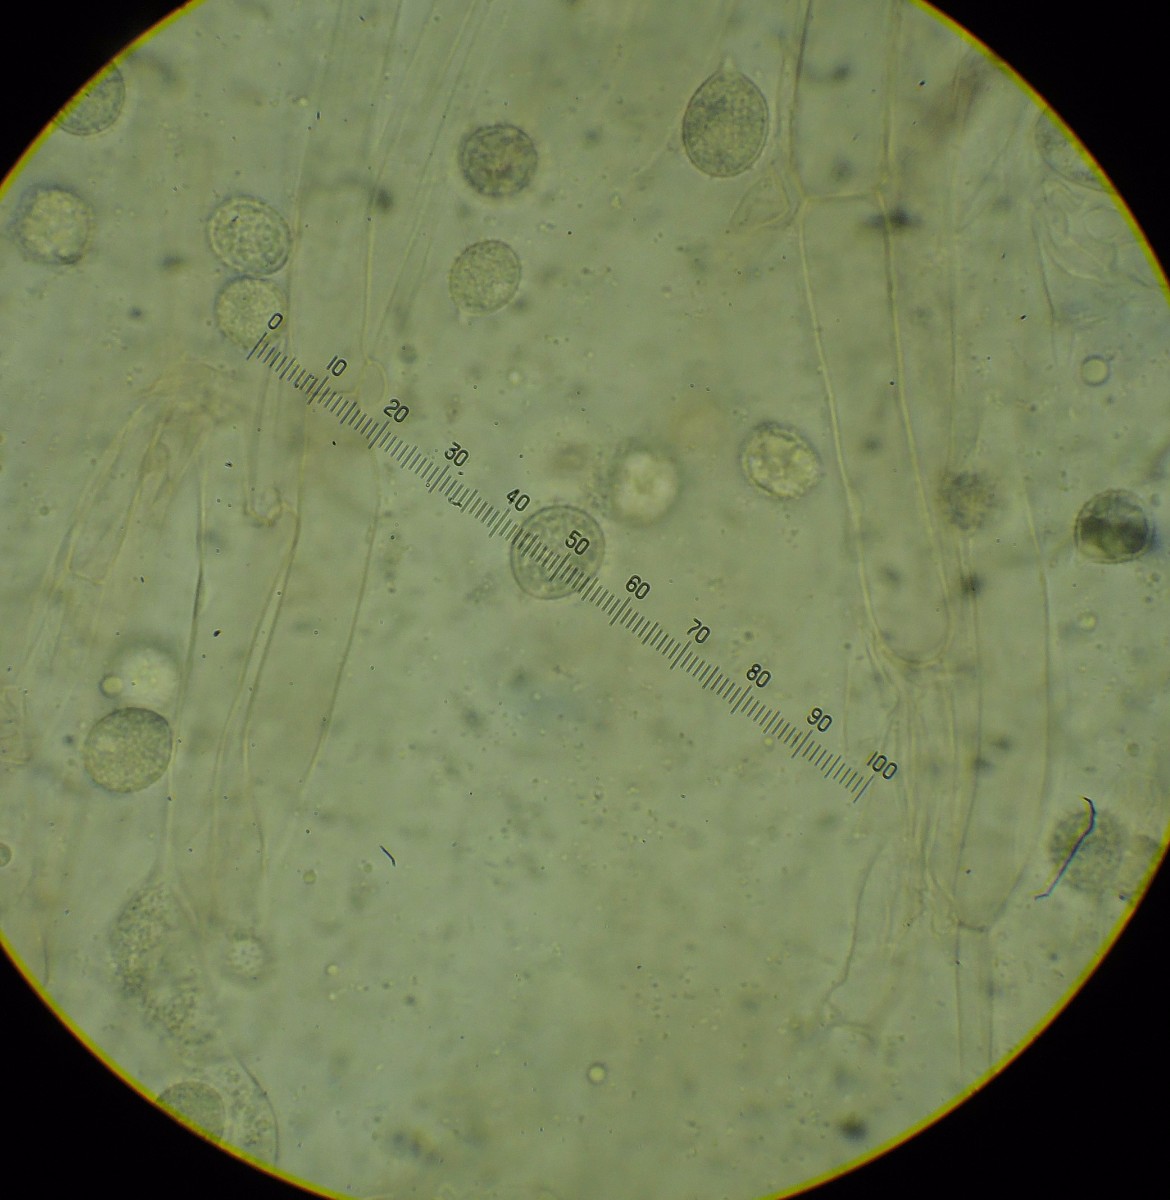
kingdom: Fungi
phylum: Basidiomycota
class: Agaricomycetes
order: Agaricales
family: Hydnangiaceae
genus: Laccaria
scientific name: Laccaria purpureobadia
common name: purpurbrun ametysthat
